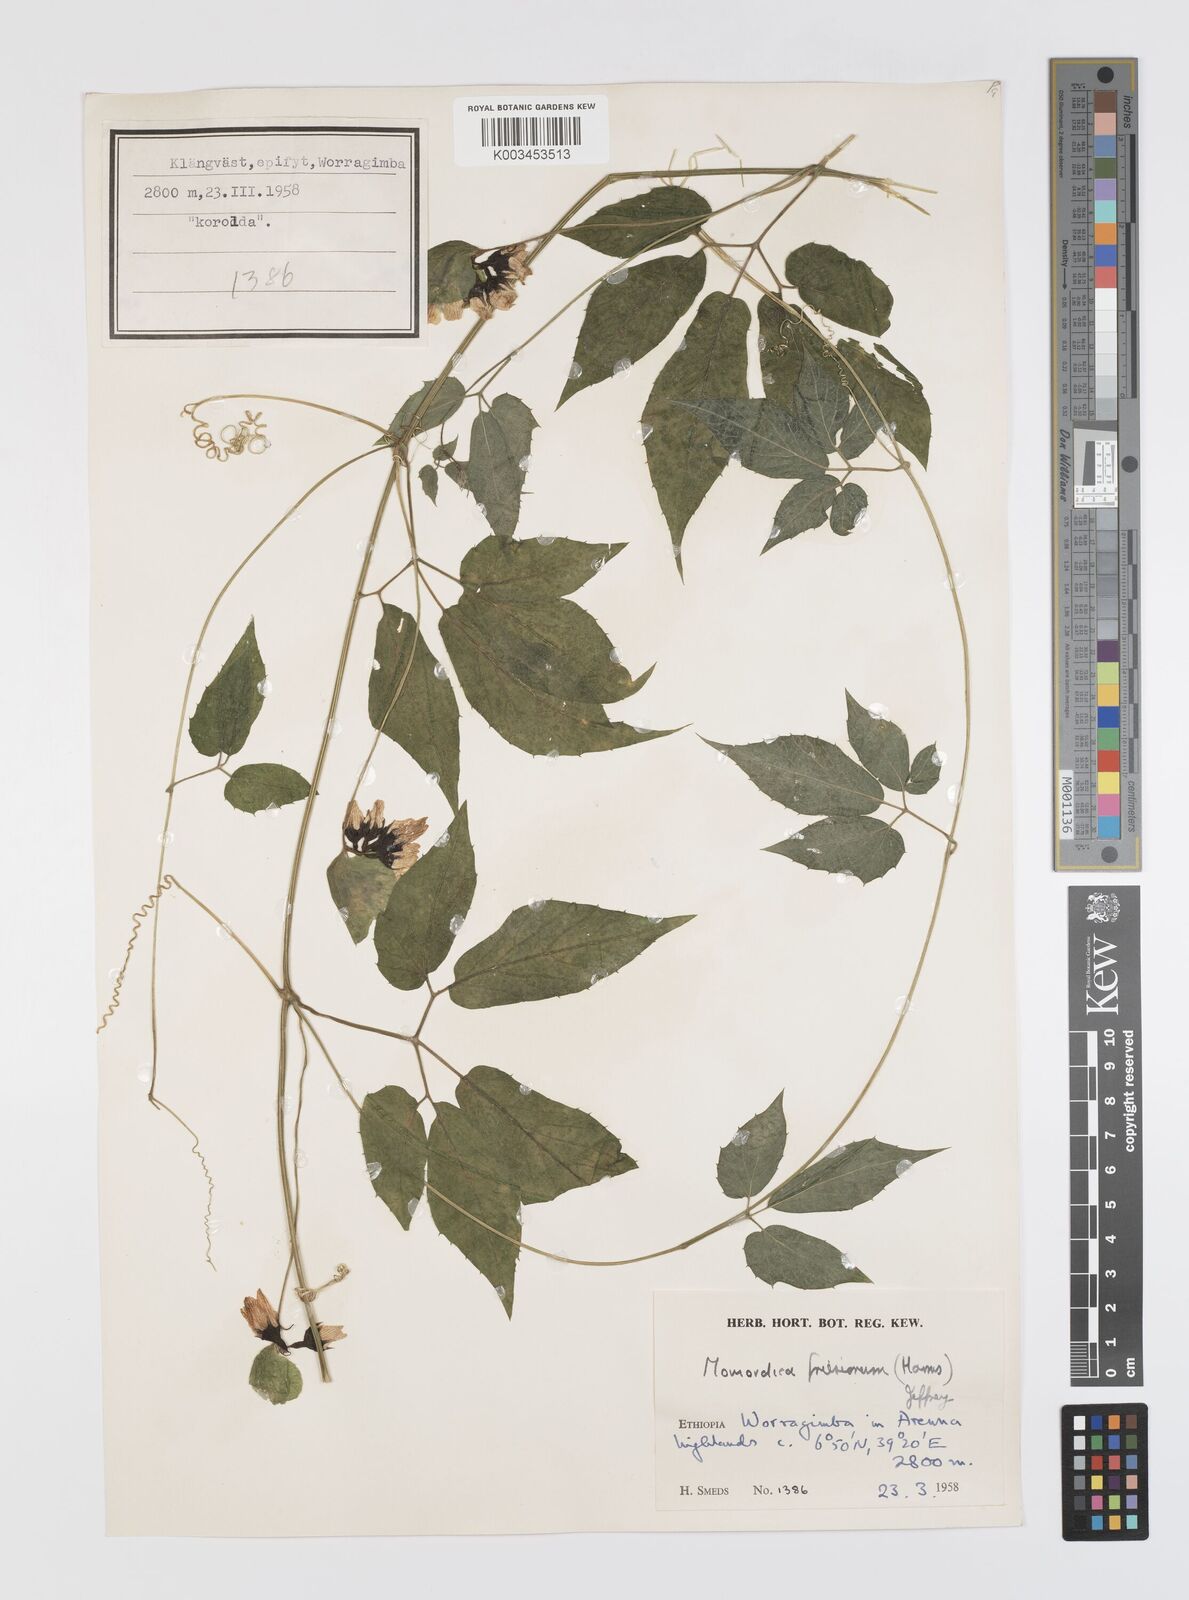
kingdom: Plantae
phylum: Tracheophyta
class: Magnoliopsida
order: Cucurbitales
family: Cucurbitaceae
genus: Momordica
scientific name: Momordica friesiorum
